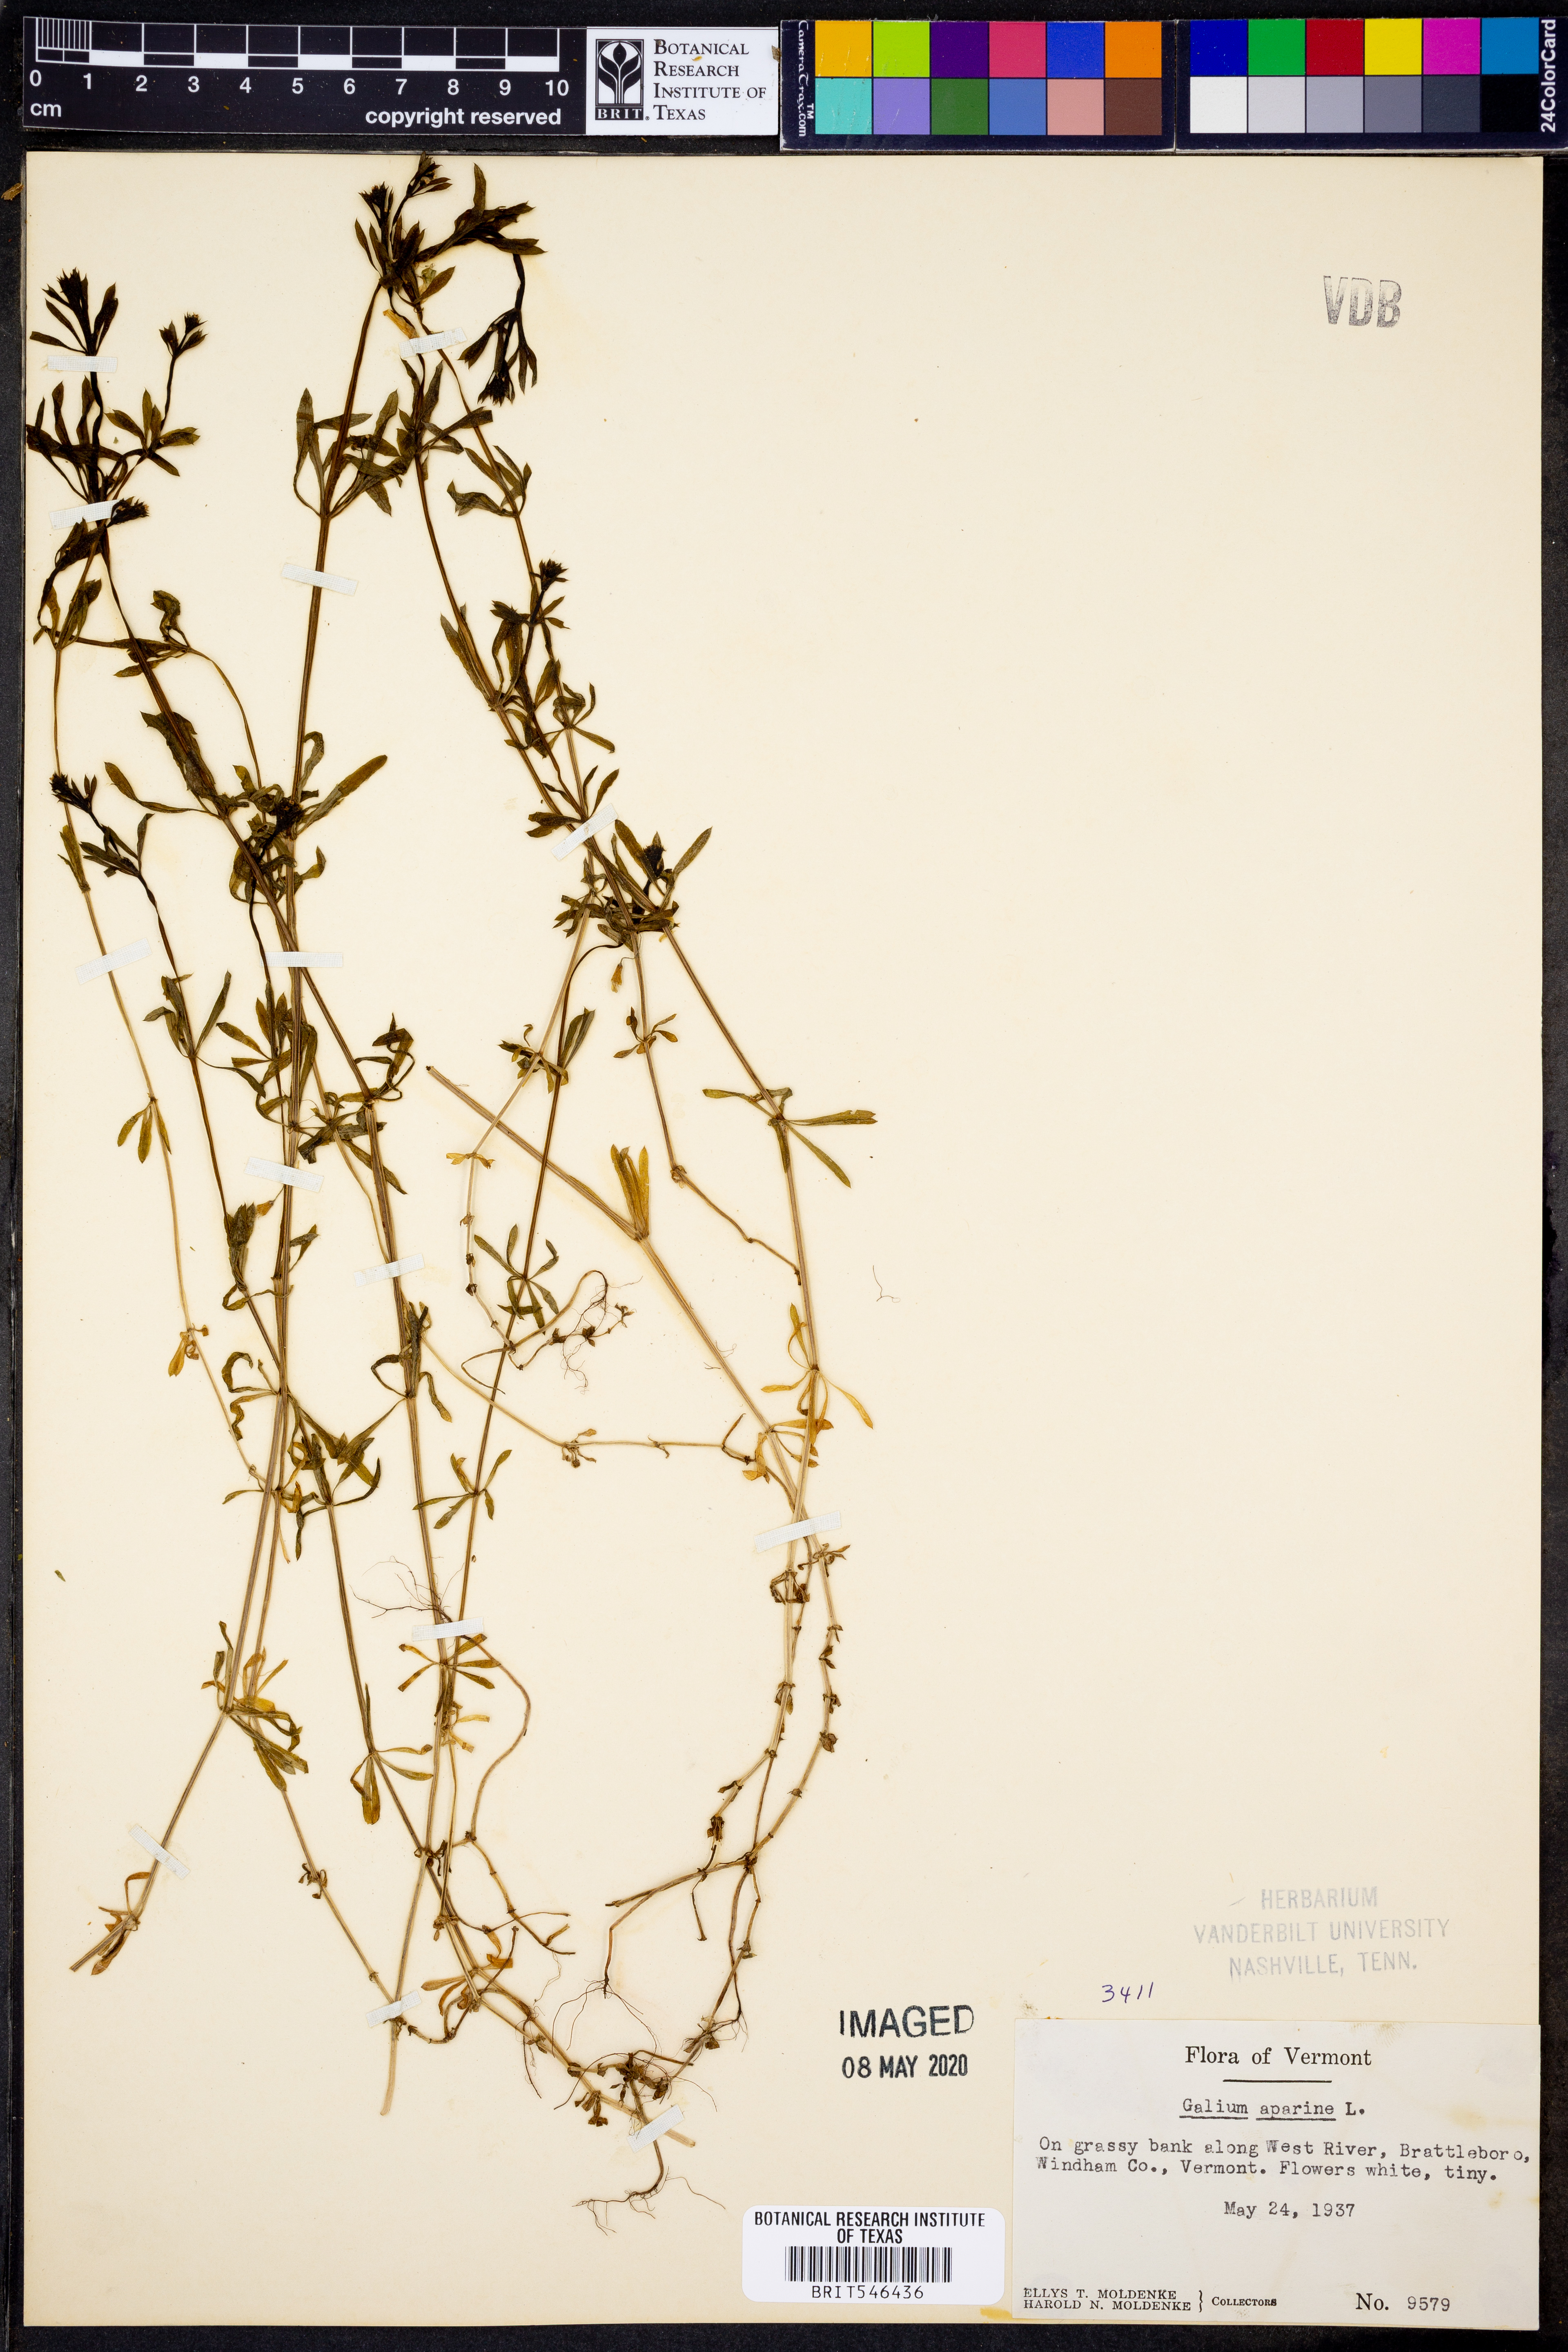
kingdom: Plantae
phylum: Tracheophyta
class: Magnoliopsida
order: Gentianales
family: Rubiaceae
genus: Galium
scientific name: Galium aparine
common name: Cleavers
